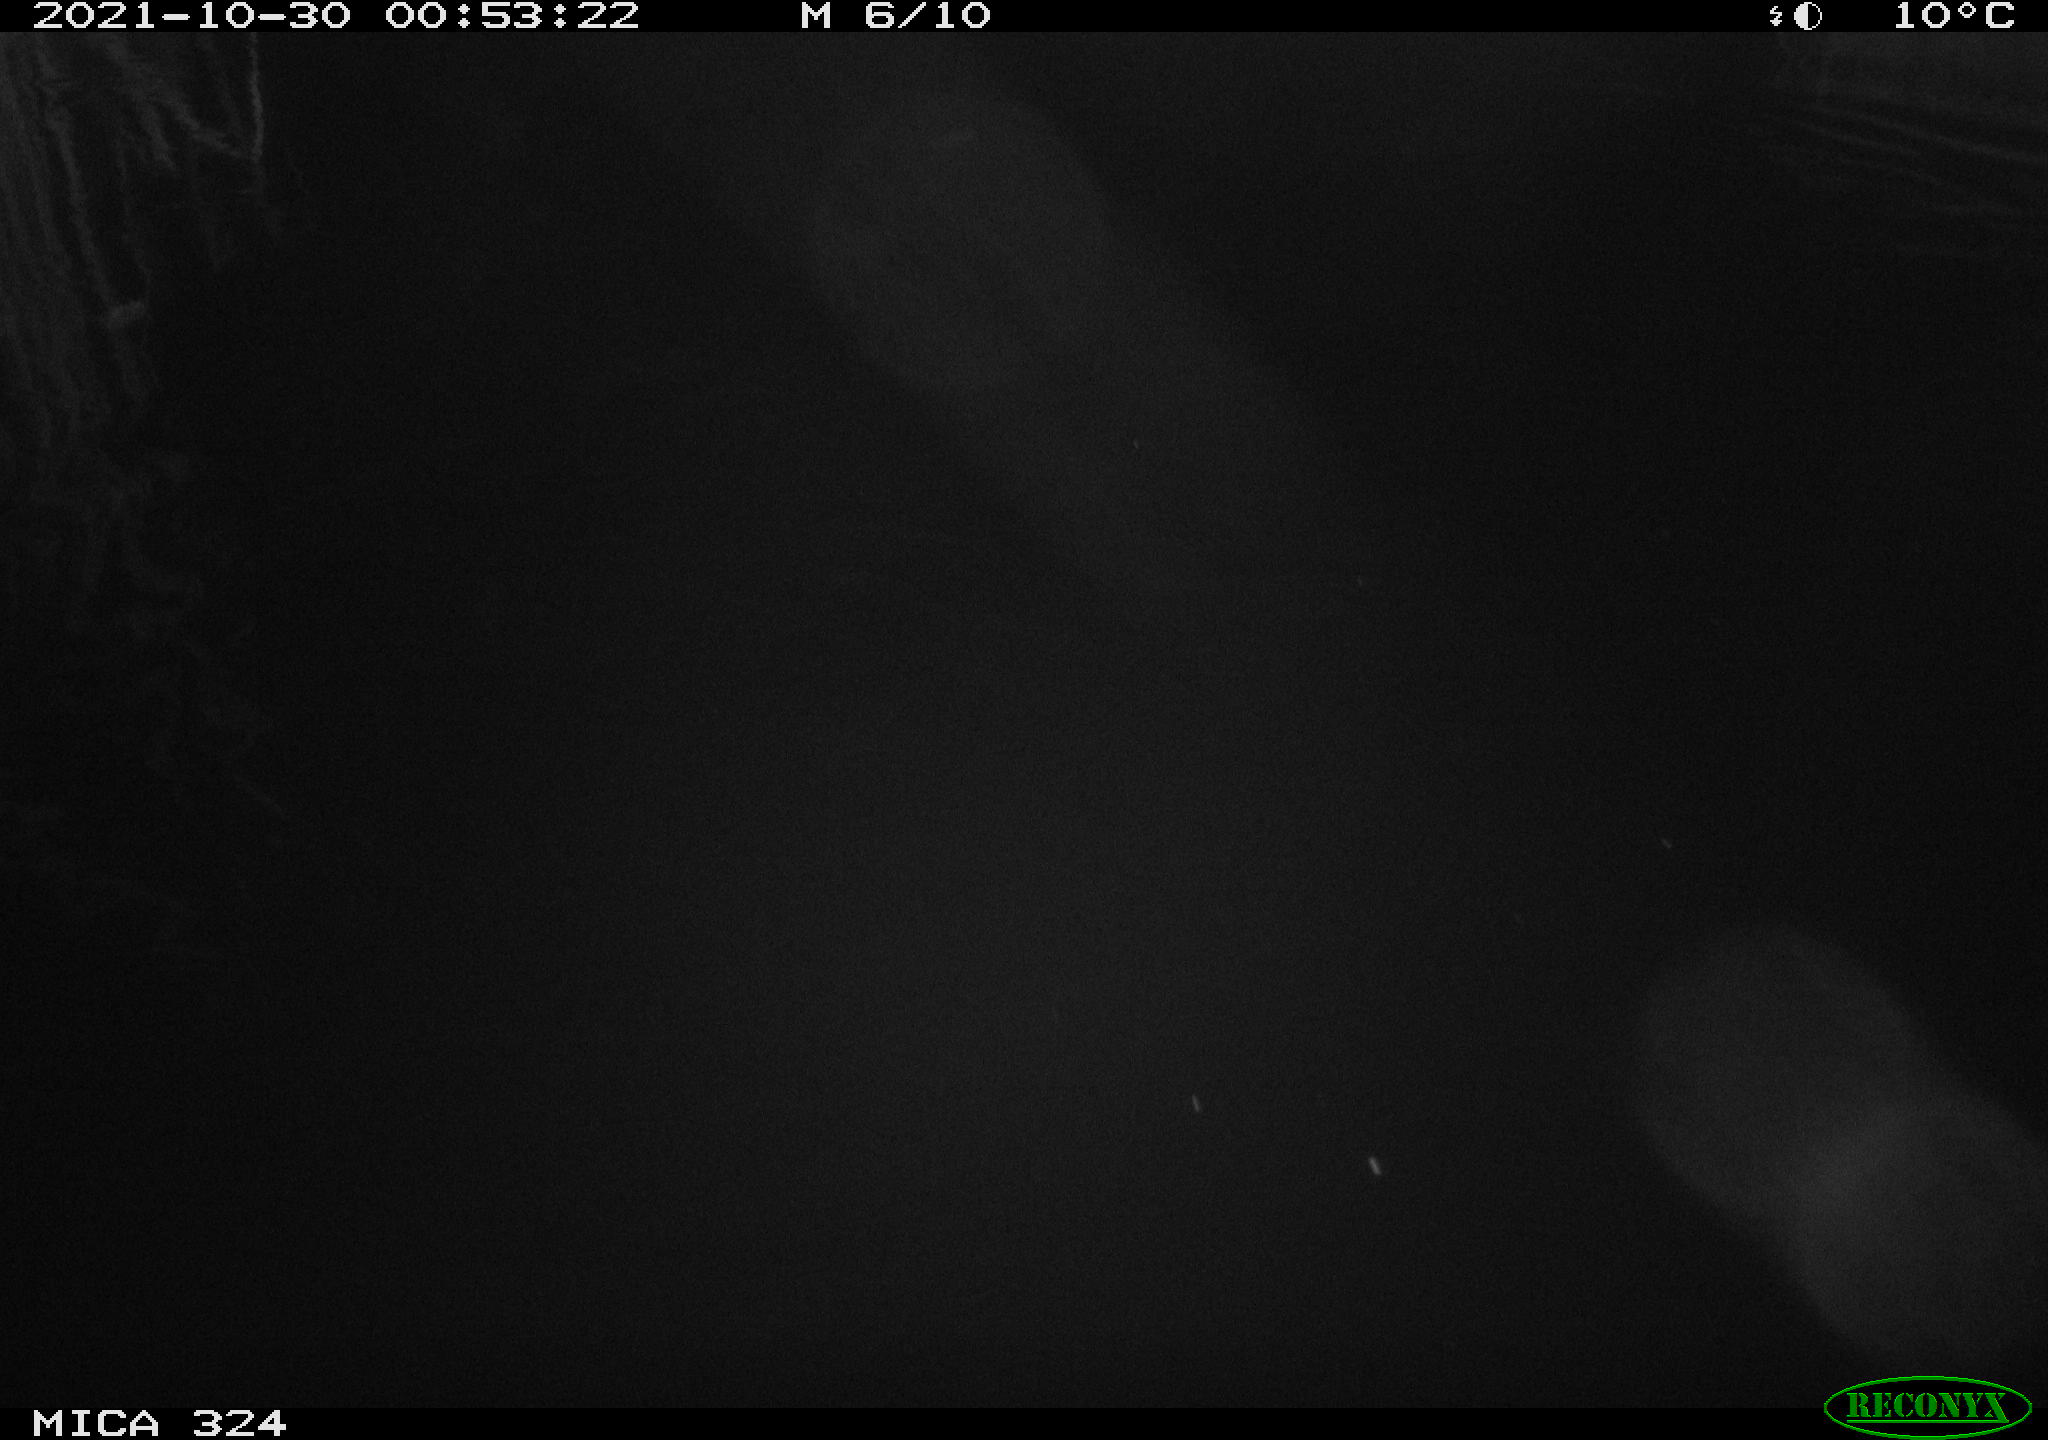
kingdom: Animalia
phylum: Chordata
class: Mammalia
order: Rodentia
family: Cricetidae
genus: Ondatra
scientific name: Ondatra zibethicus
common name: Muskrat
